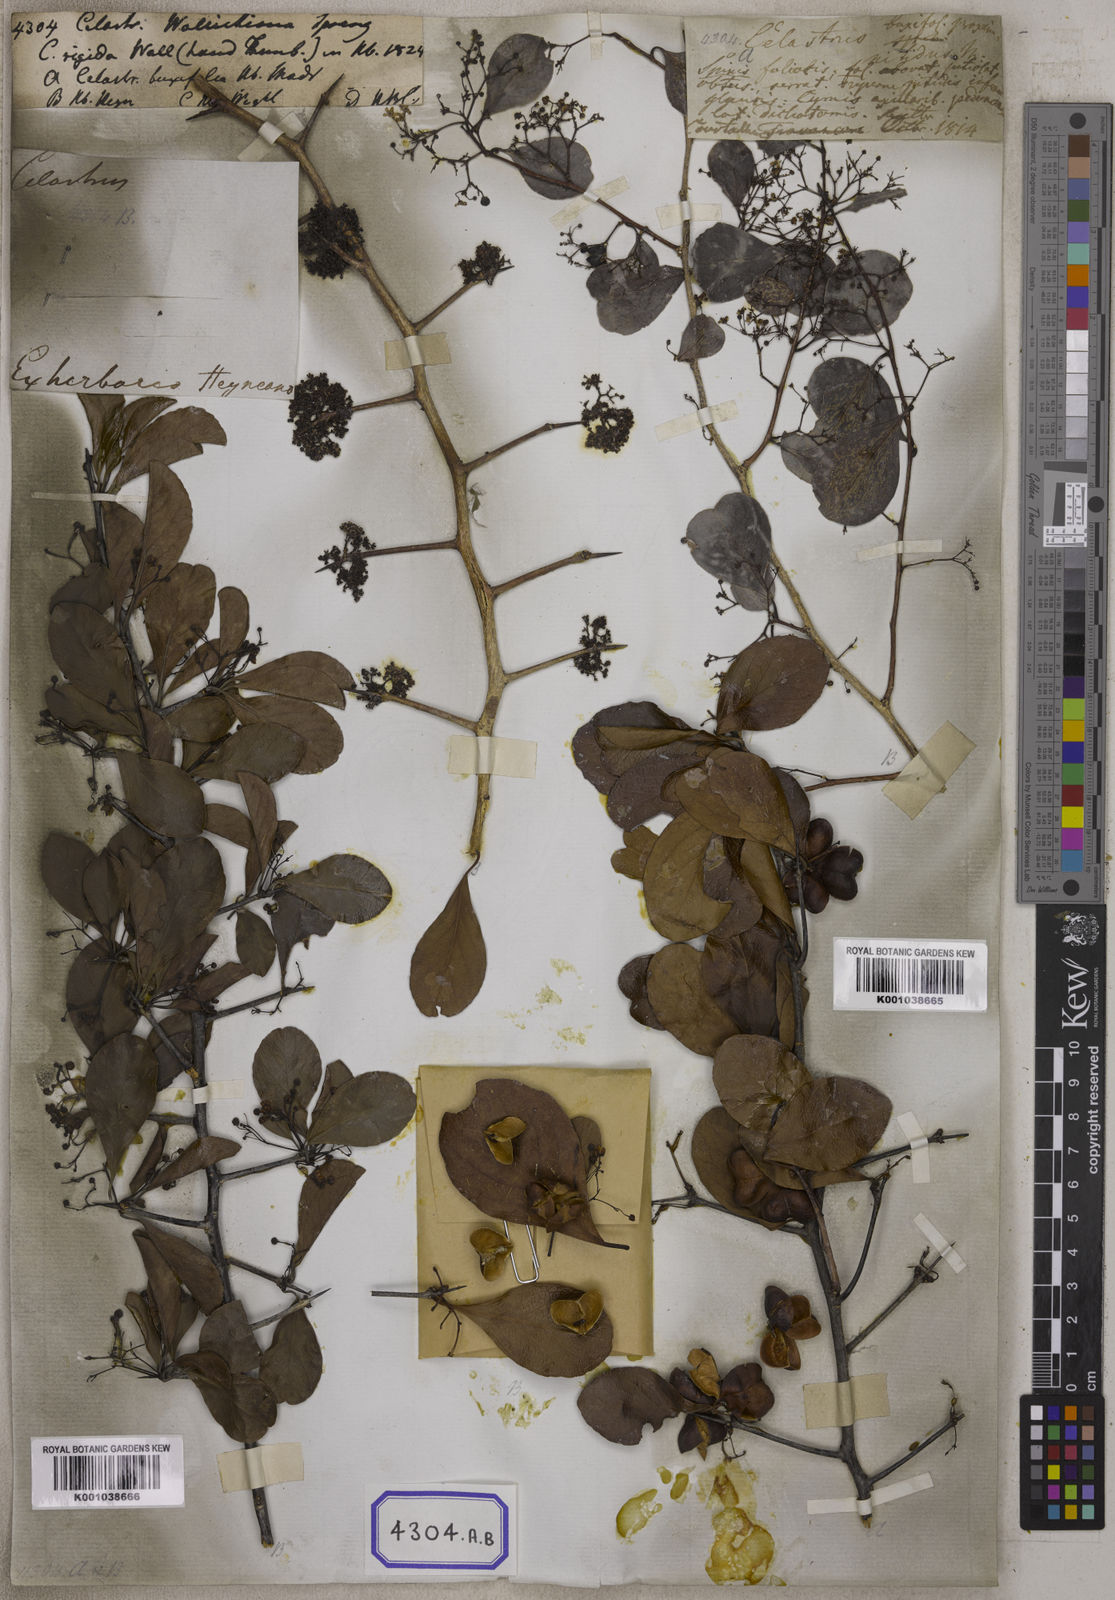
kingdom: Plantae
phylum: Tracheophyta
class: Magnoliopsida
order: Celastrales
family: Celastraceae
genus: Gymnosporia
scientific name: Gymnosporia wallichiana
